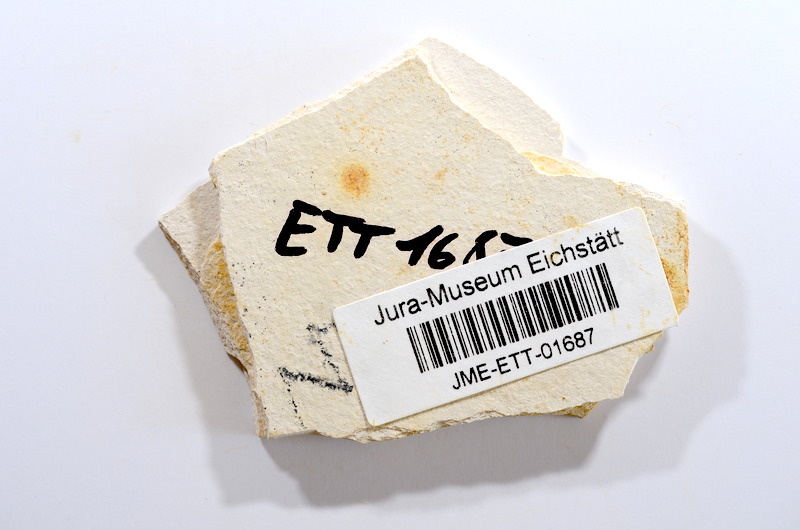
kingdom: Animalia
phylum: Chordata
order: Salmoniformes
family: Orthogonikleithridae
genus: Orthogonikleithrus
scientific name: Orthogonikleithrus hoelli
